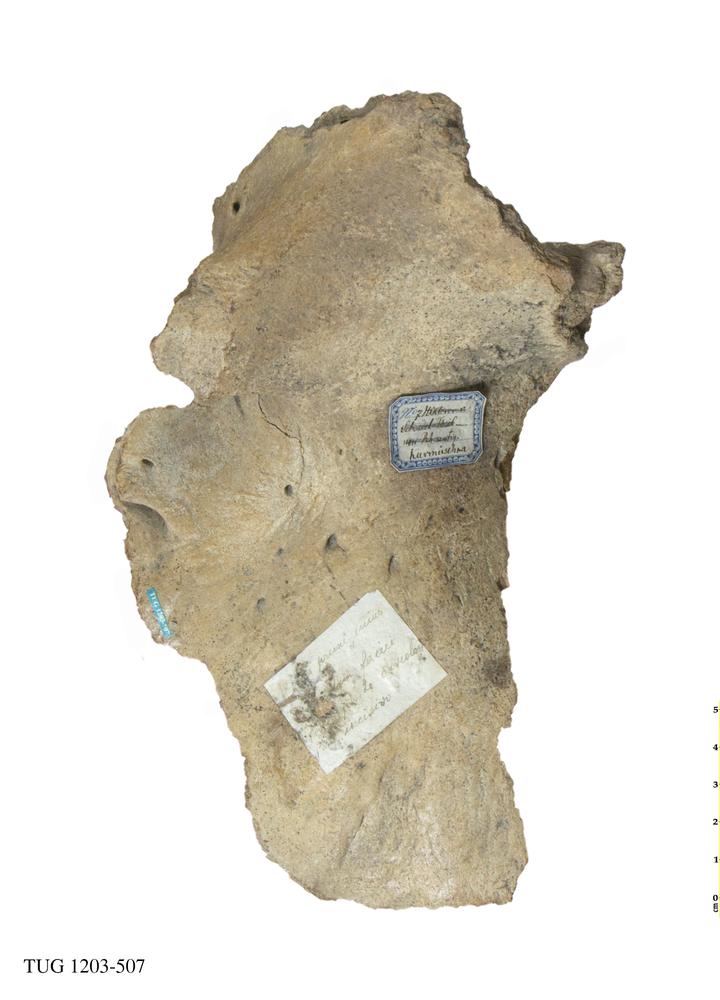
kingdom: Animalia
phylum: Chordata
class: Mammalia
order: Artiodactyla
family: Bovidae
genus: Bos
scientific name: Bos taurus
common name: Domesticated cattle
